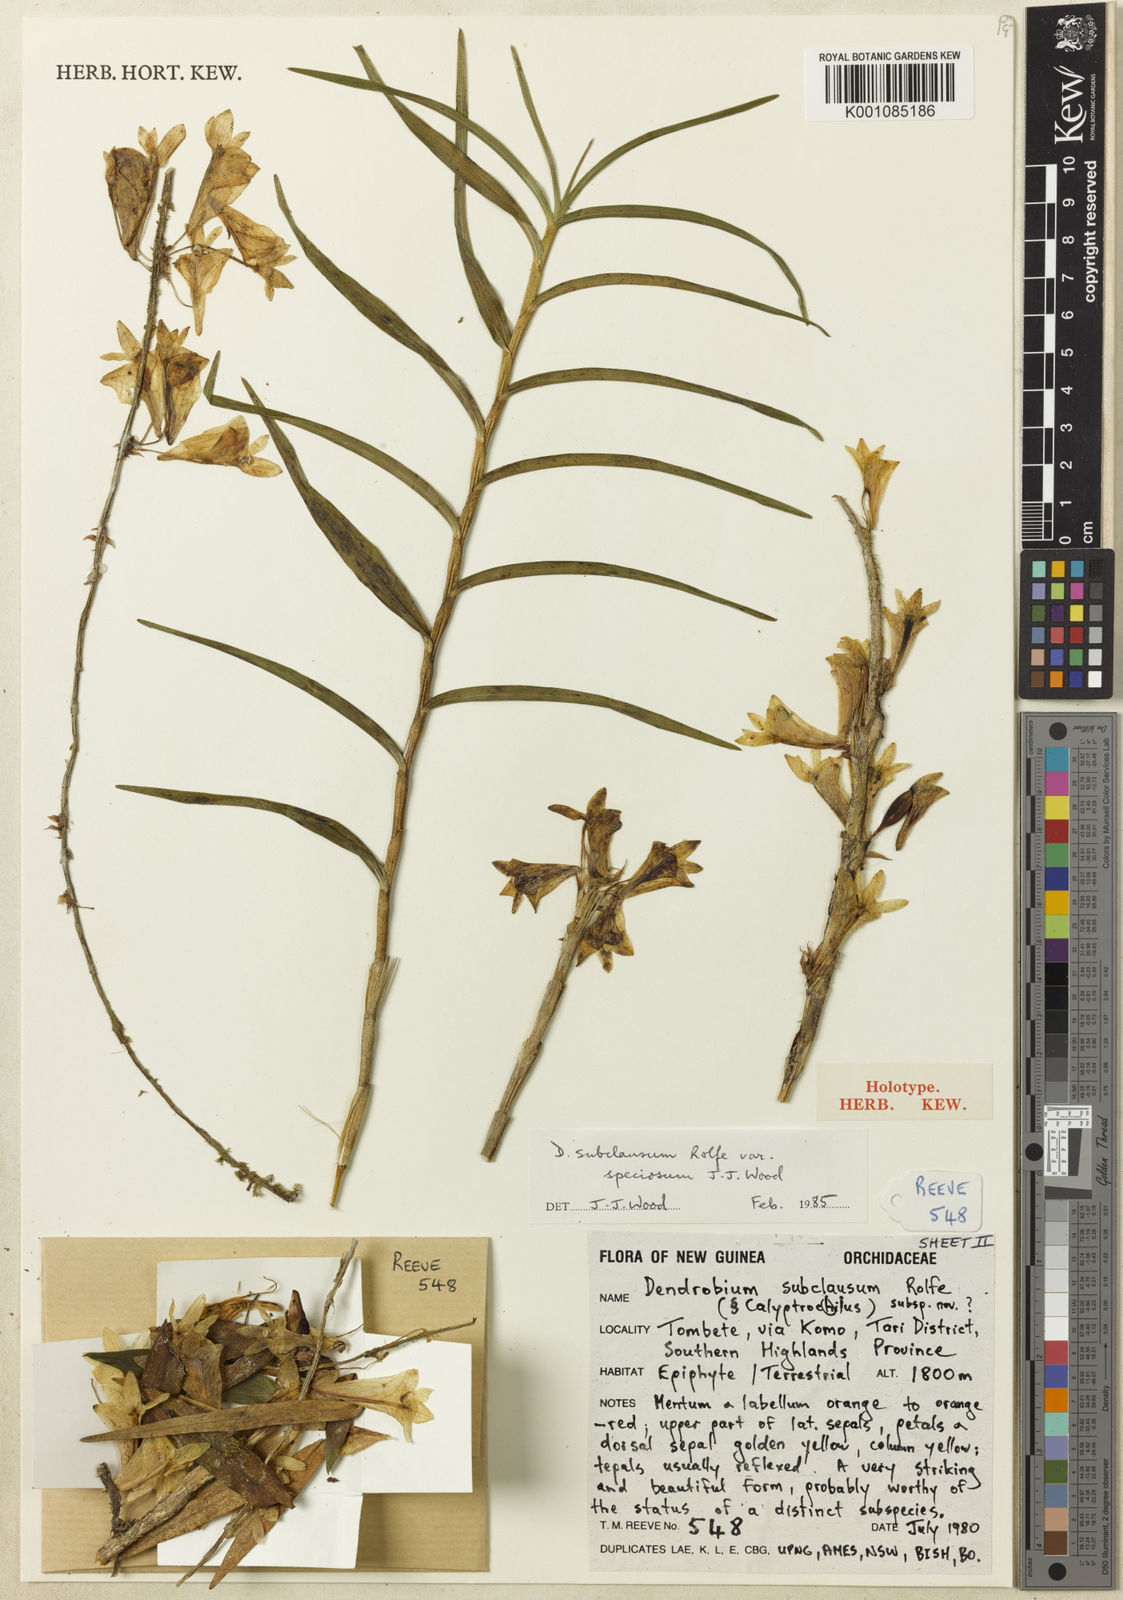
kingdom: Plantae
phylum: Tracheophyta
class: Liliopsida
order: Asparagales
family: Orchidaceae
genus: Dendrobium
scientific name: Dendrobium subclausum
